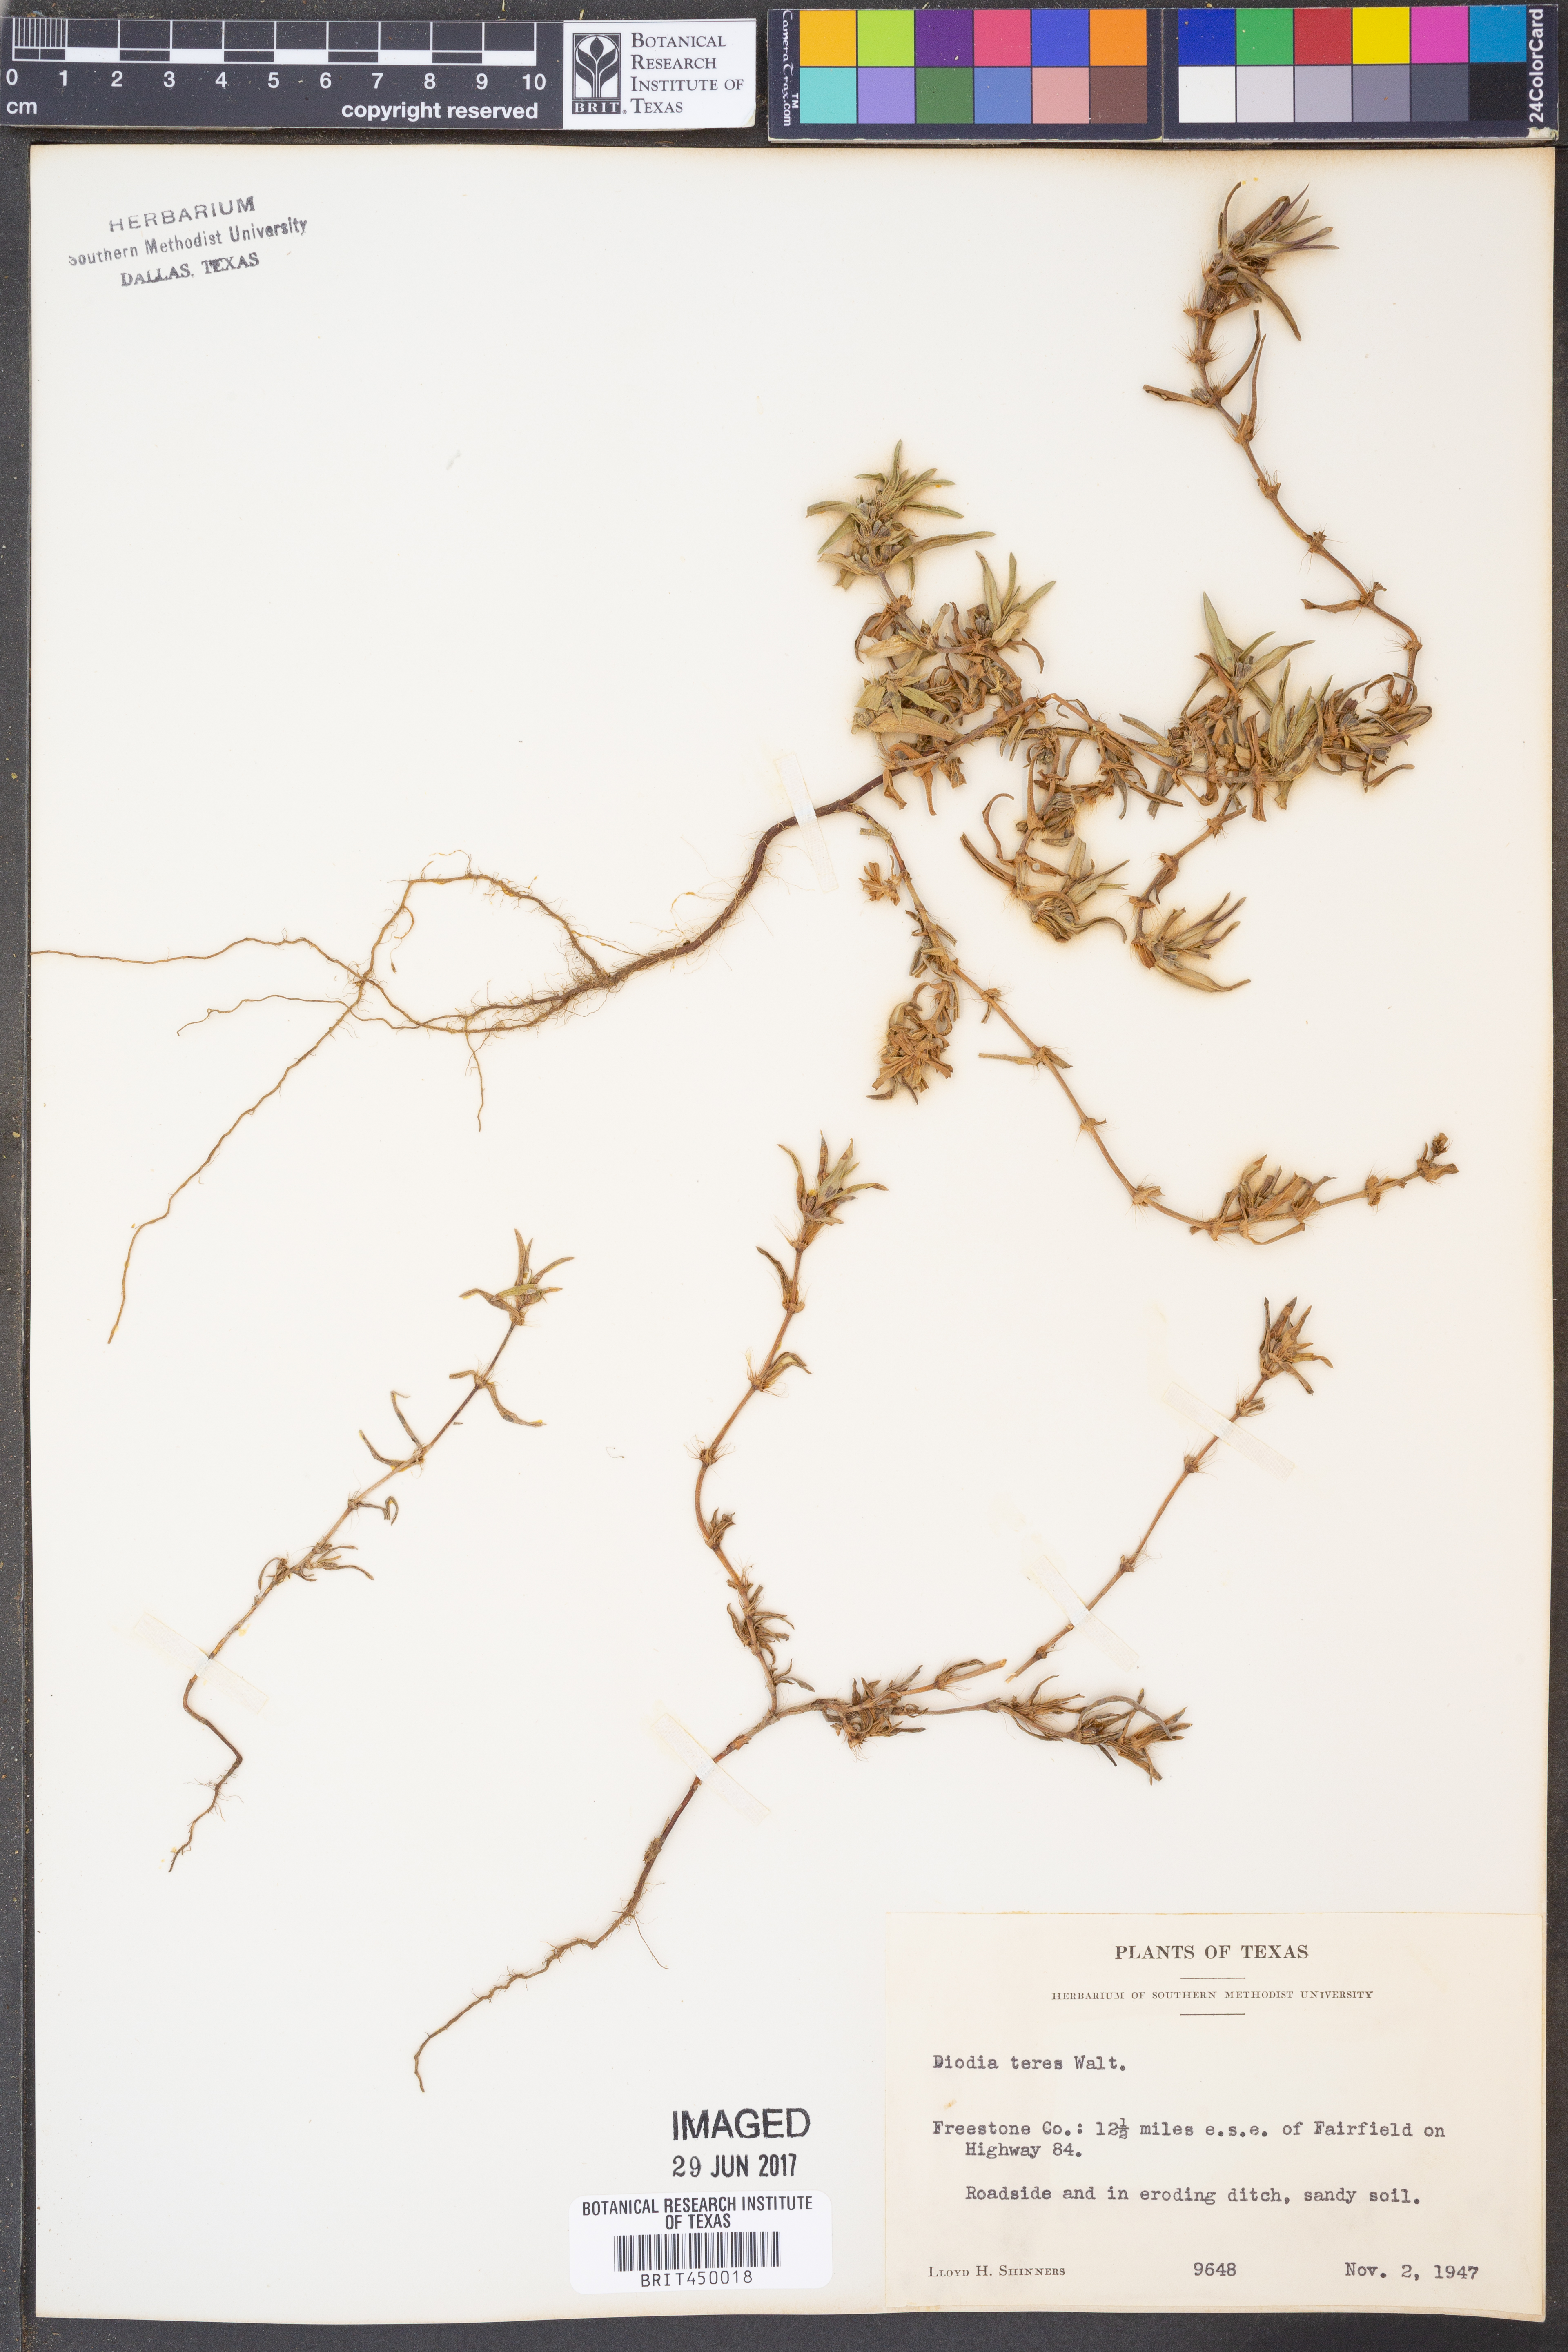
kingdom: Plantae
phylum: Tracheophyta
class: Magnoliopsida
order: Gentianales
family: Rubiaceae
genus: Hexasepalum
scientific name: Hexasepalum teres
